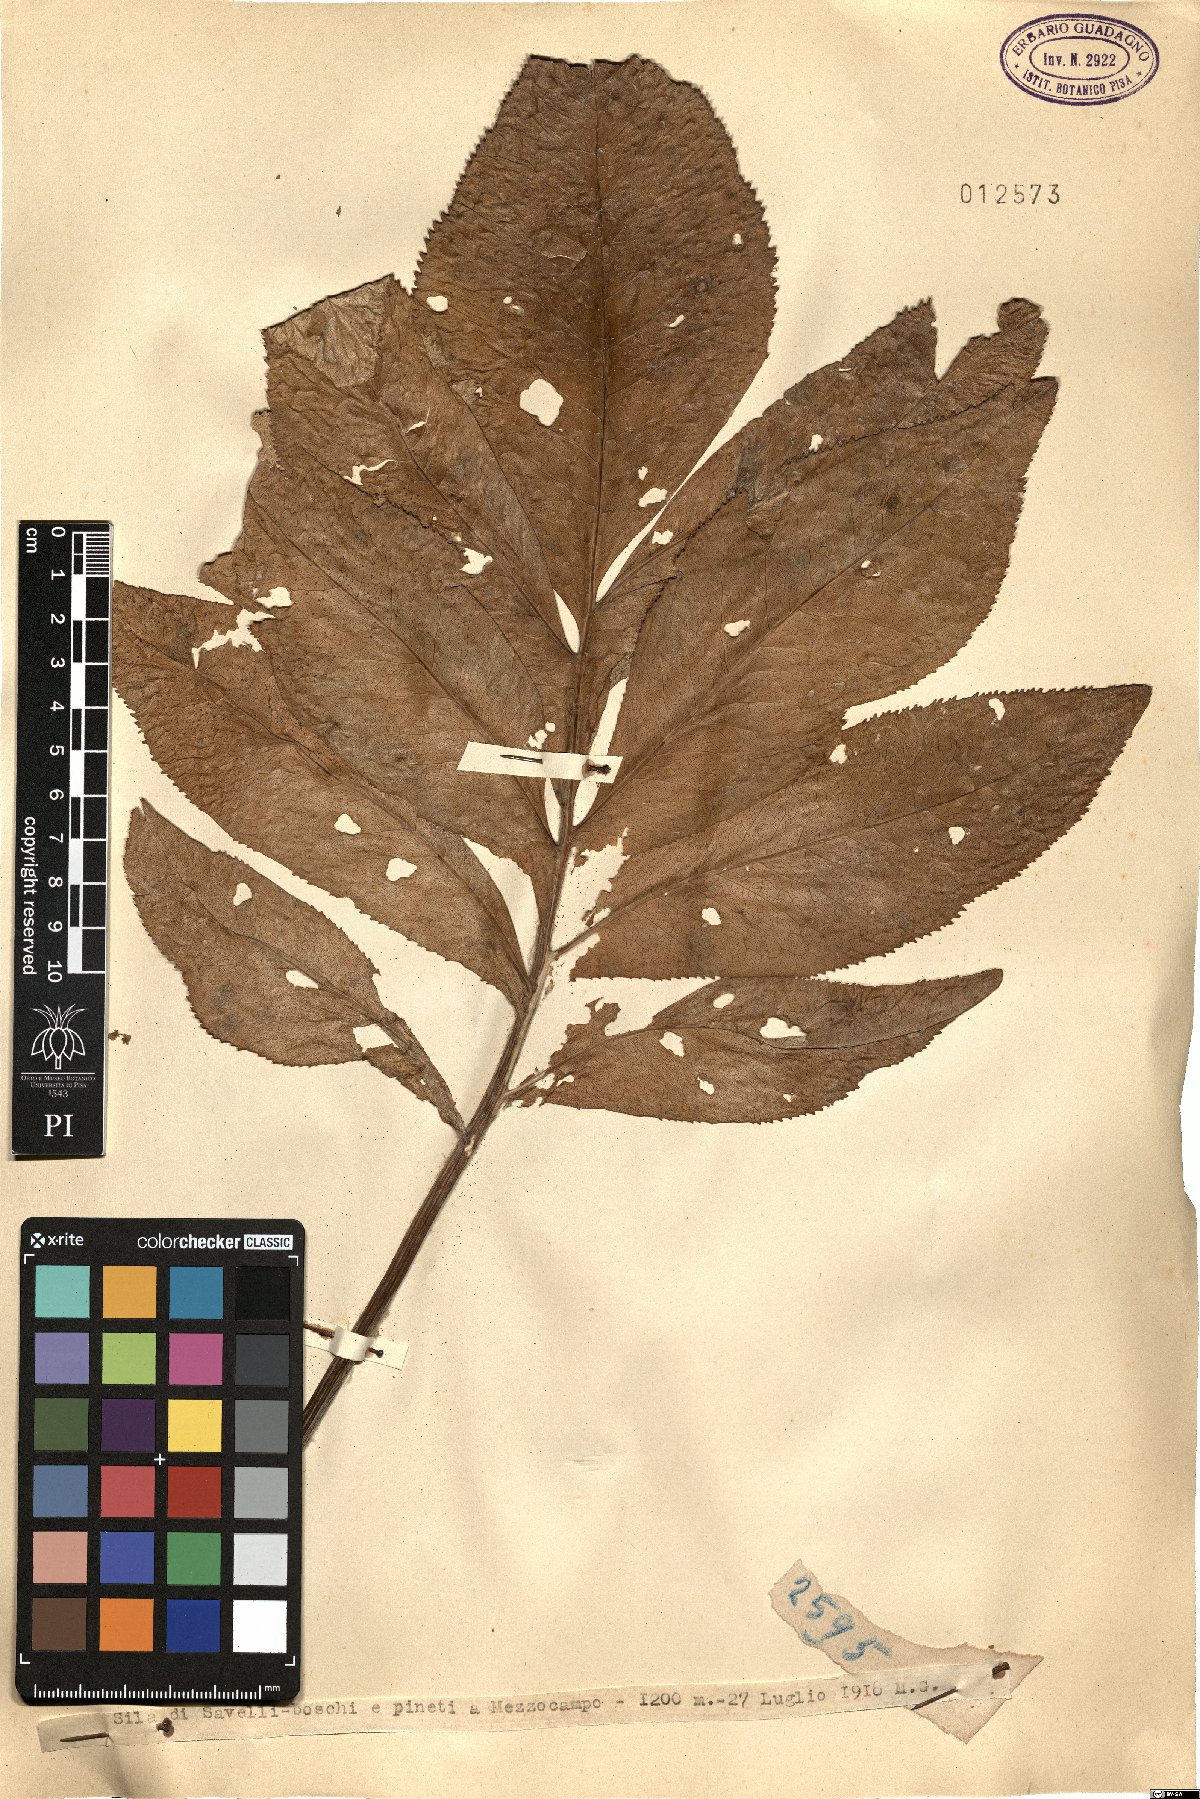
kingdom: Plantae
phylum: Tracheophyta
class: Magnoliopsida
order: Asterales
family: Asteraceae
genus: Centaurea
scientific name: Centaurea
